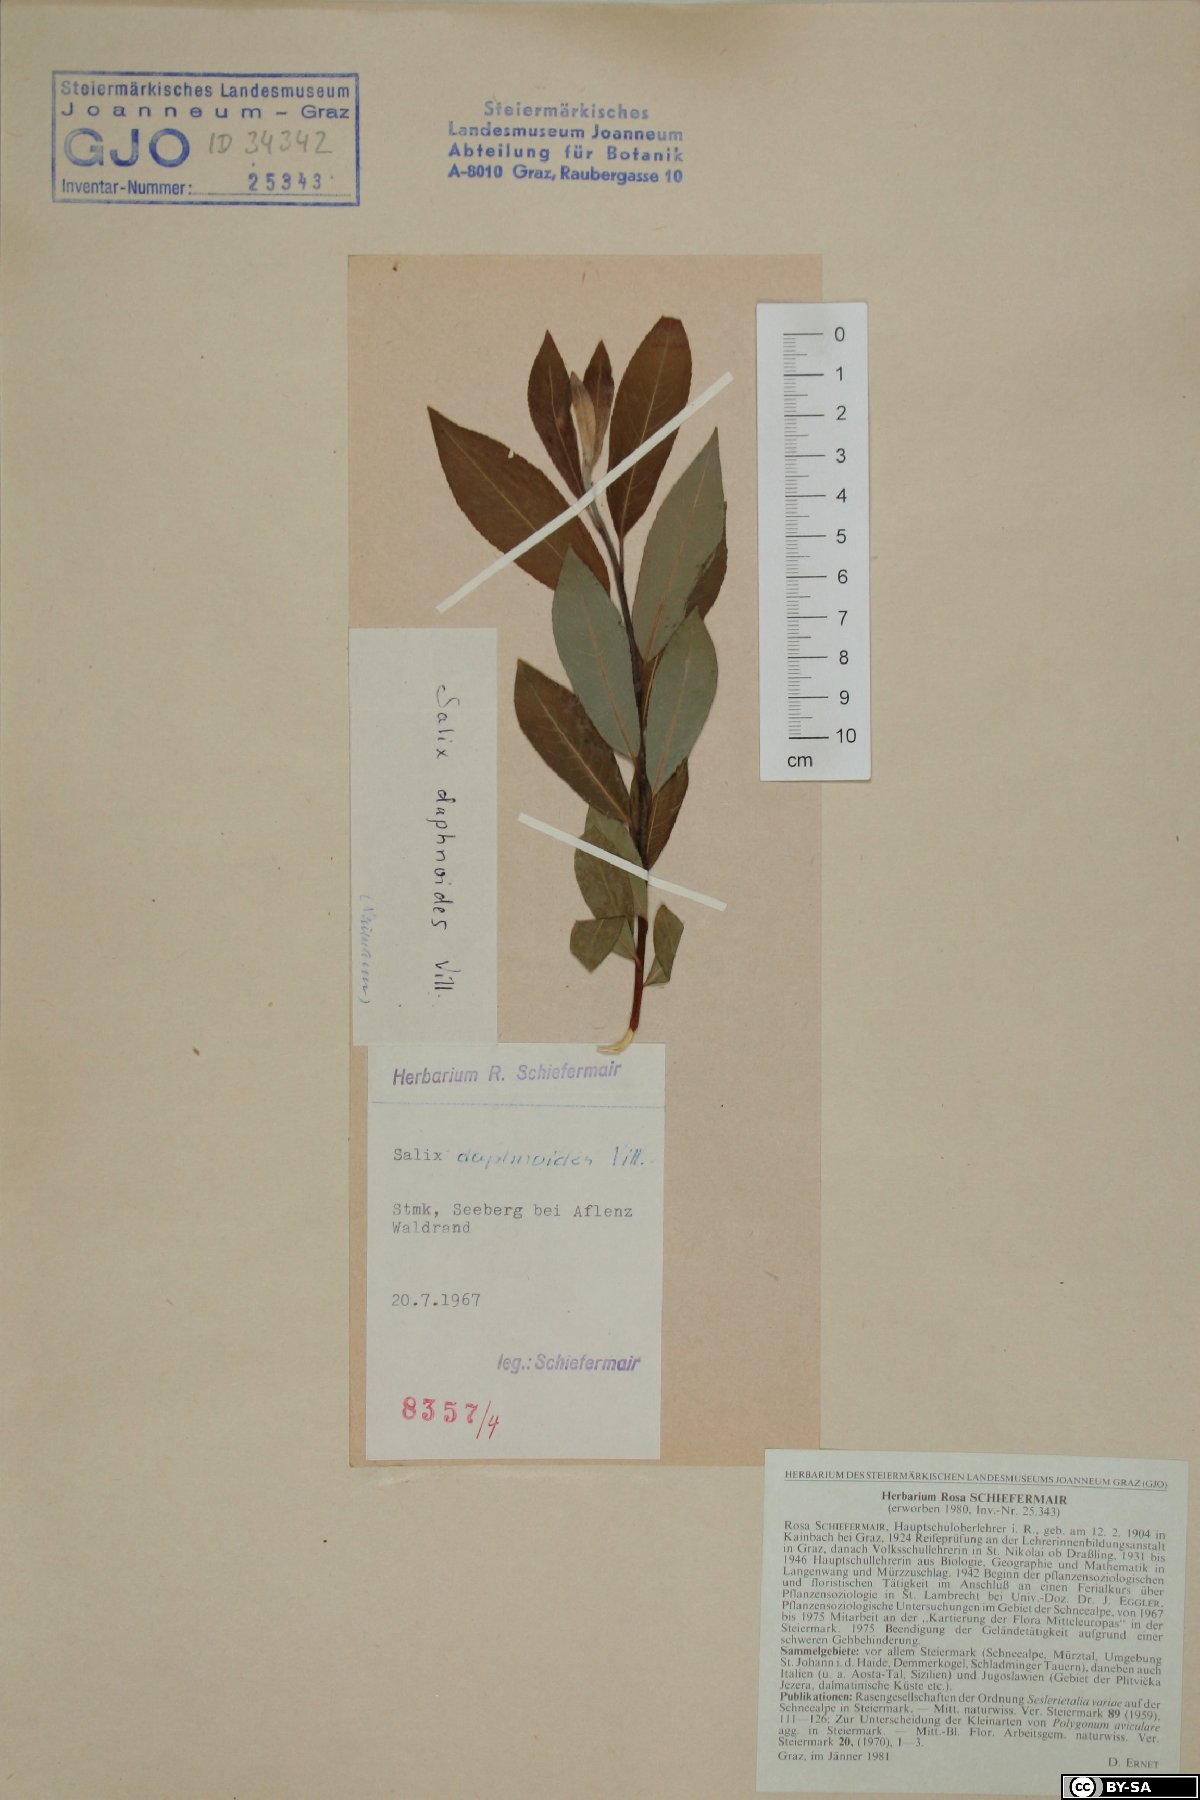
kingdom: Plantae
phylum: Tracheophyta
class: Magnoliopsida
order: Malpighiales
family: Salicaceae
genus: Salix
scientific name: Salix daphnoides
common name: European violet-willow
